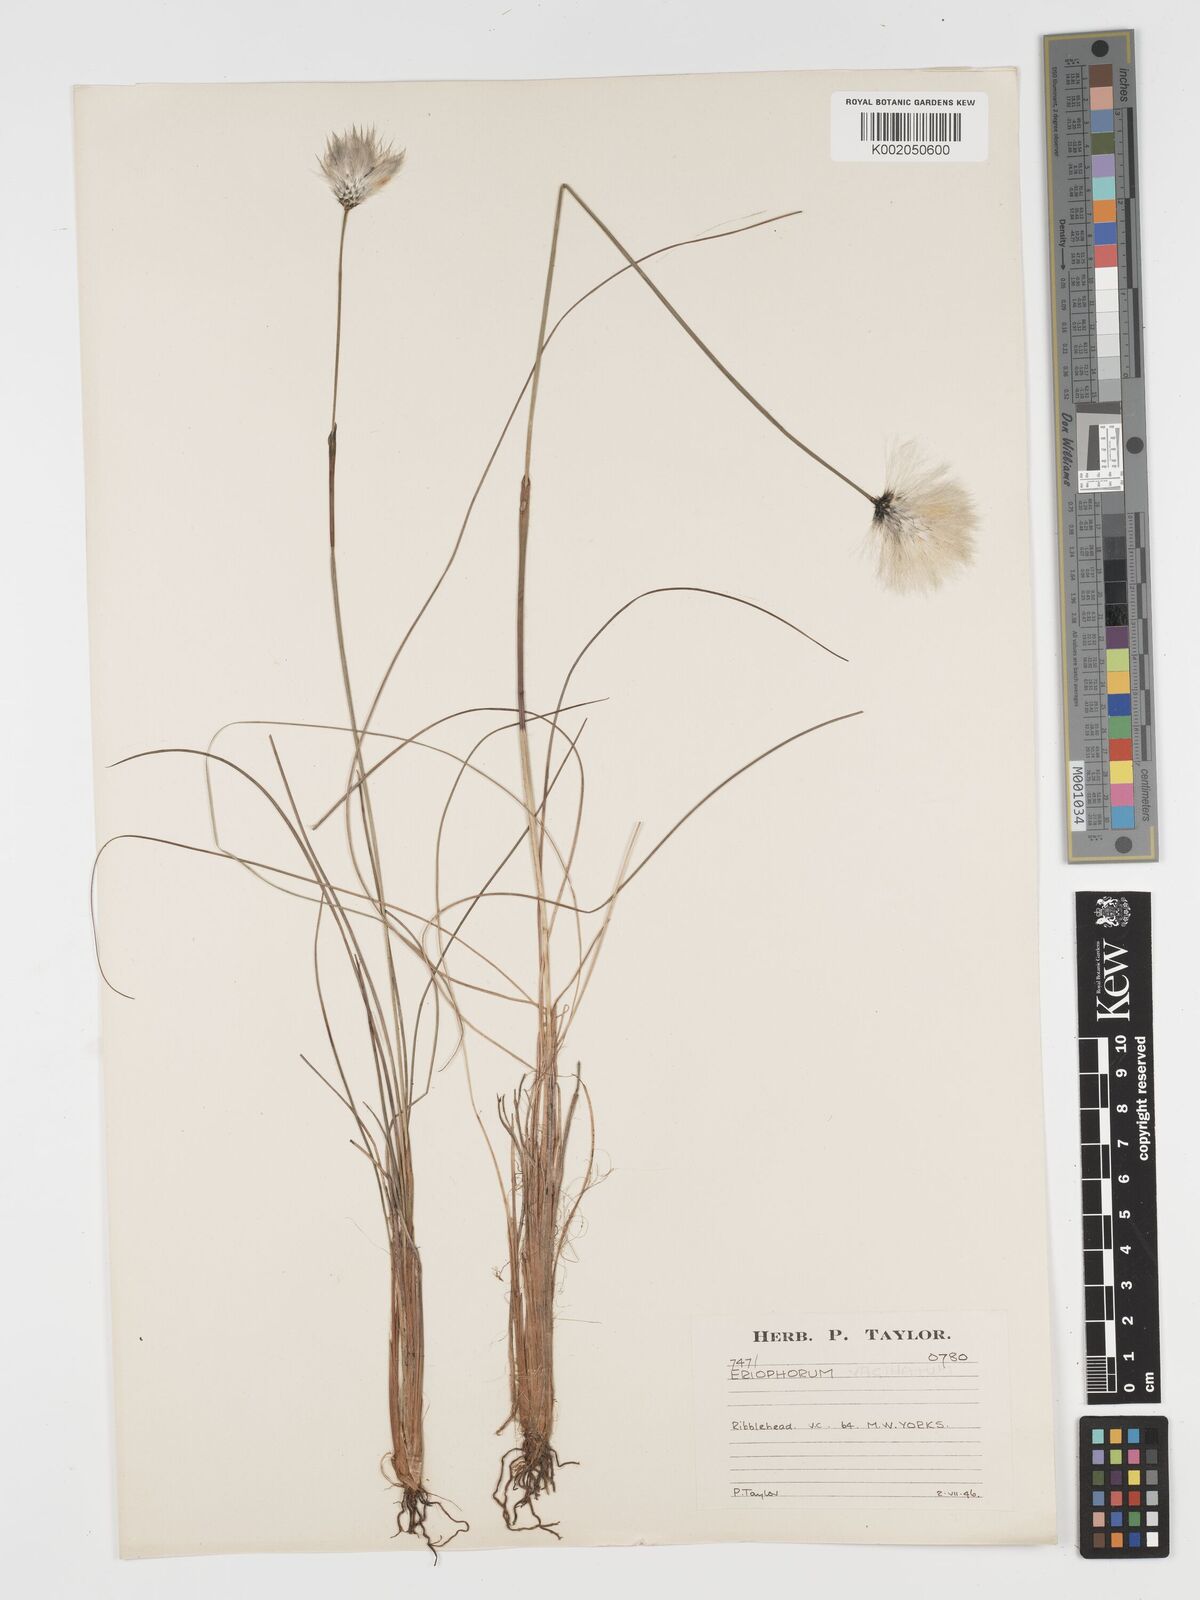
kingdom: Plantae
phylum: Tracheophyta
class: Liliopsida
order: Poales
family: Cyperaceae
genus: Eriophorum
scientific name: Eriophorum vaginatum
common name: Hare's-tail cottongrass
